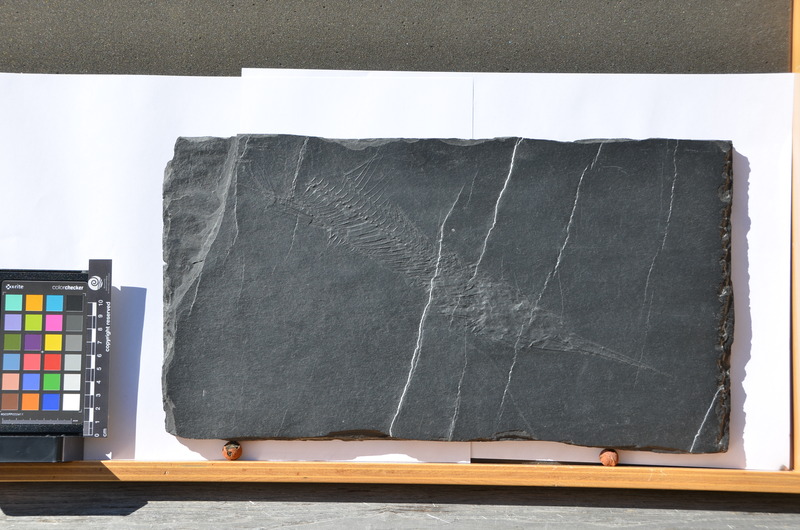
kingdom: Animalia
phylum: Chordata
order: Perciformes
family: Palaeorhynchidae
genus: Palaeorhynchus
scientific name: Palaeorhynchus Palaeorhynchum glarisianum
